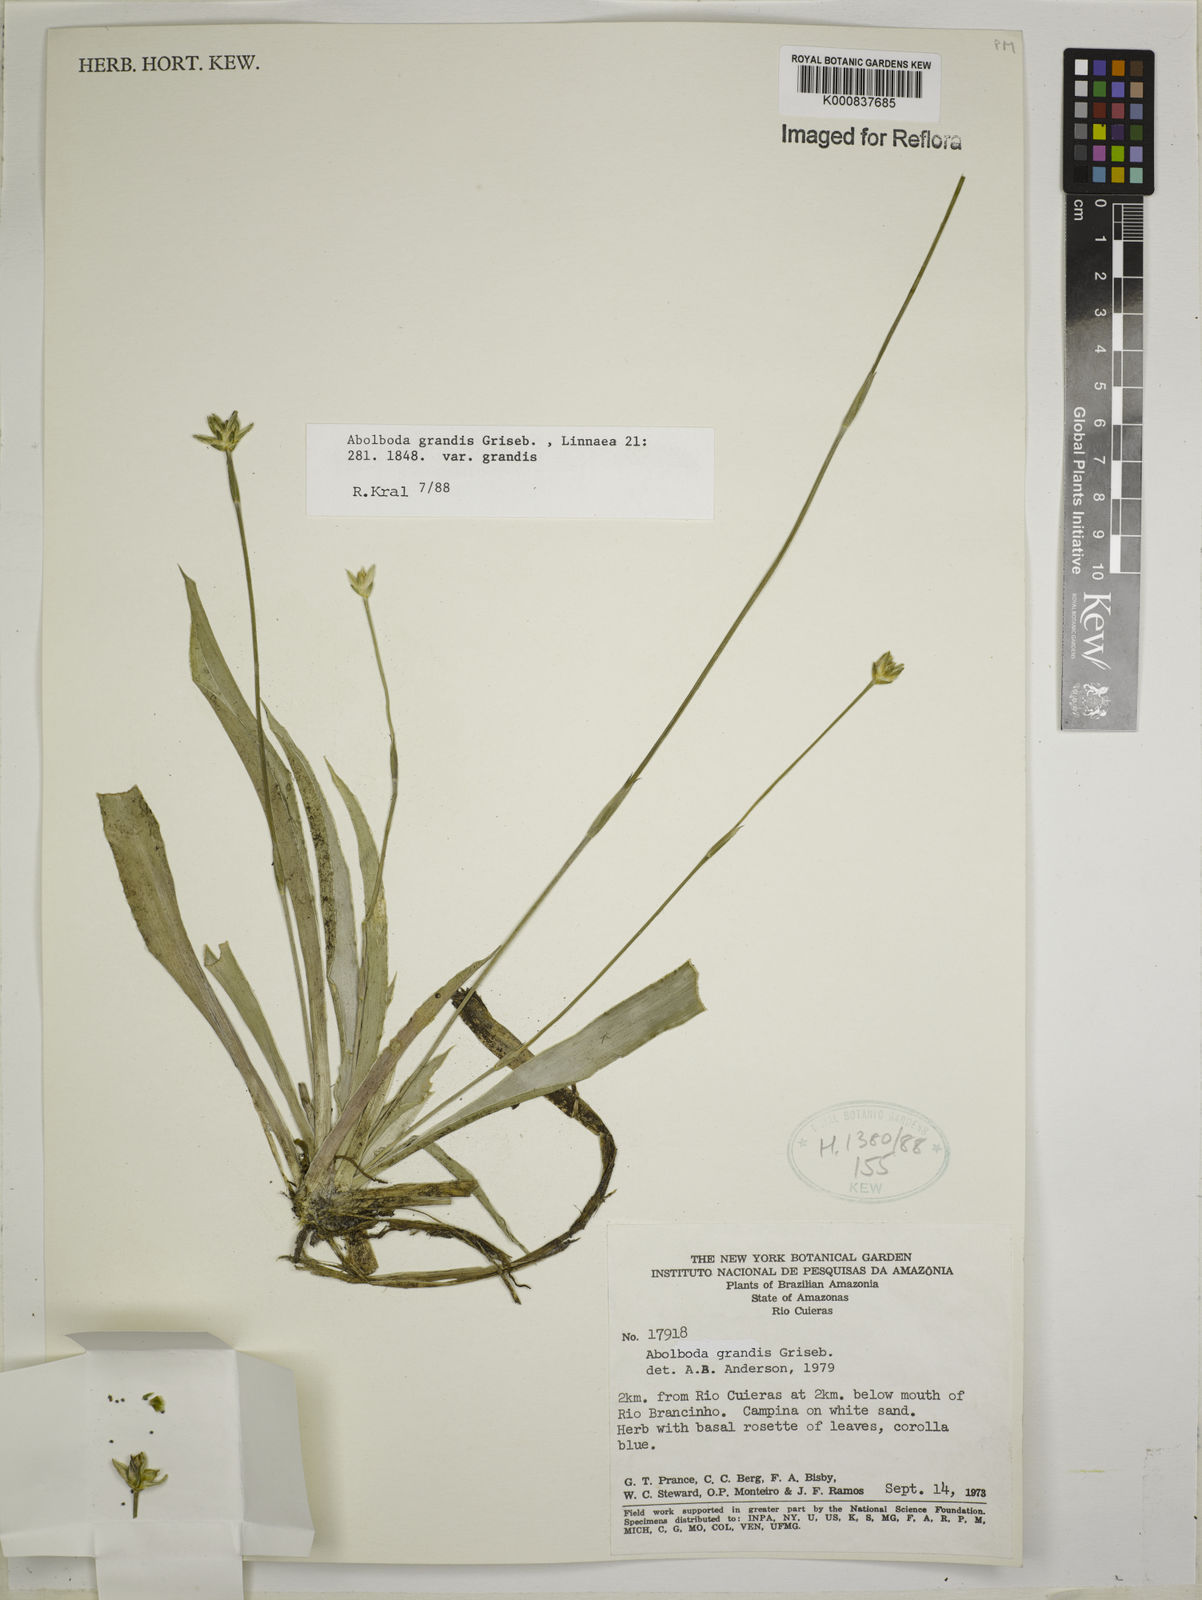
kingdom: Plantae
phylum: Tracheophyta
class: Liliopsida
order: Poales
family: Xyridaceae
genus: Abolboda
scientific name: Abolboda grandis
